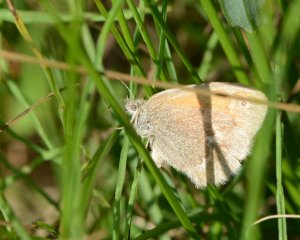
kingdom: Animalia
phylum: Arthropoda
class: Insecta
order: Lepidoptera
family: Nymphalidae
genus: Coenonympha
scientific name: Coenonympha tullia
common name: Large Heath
